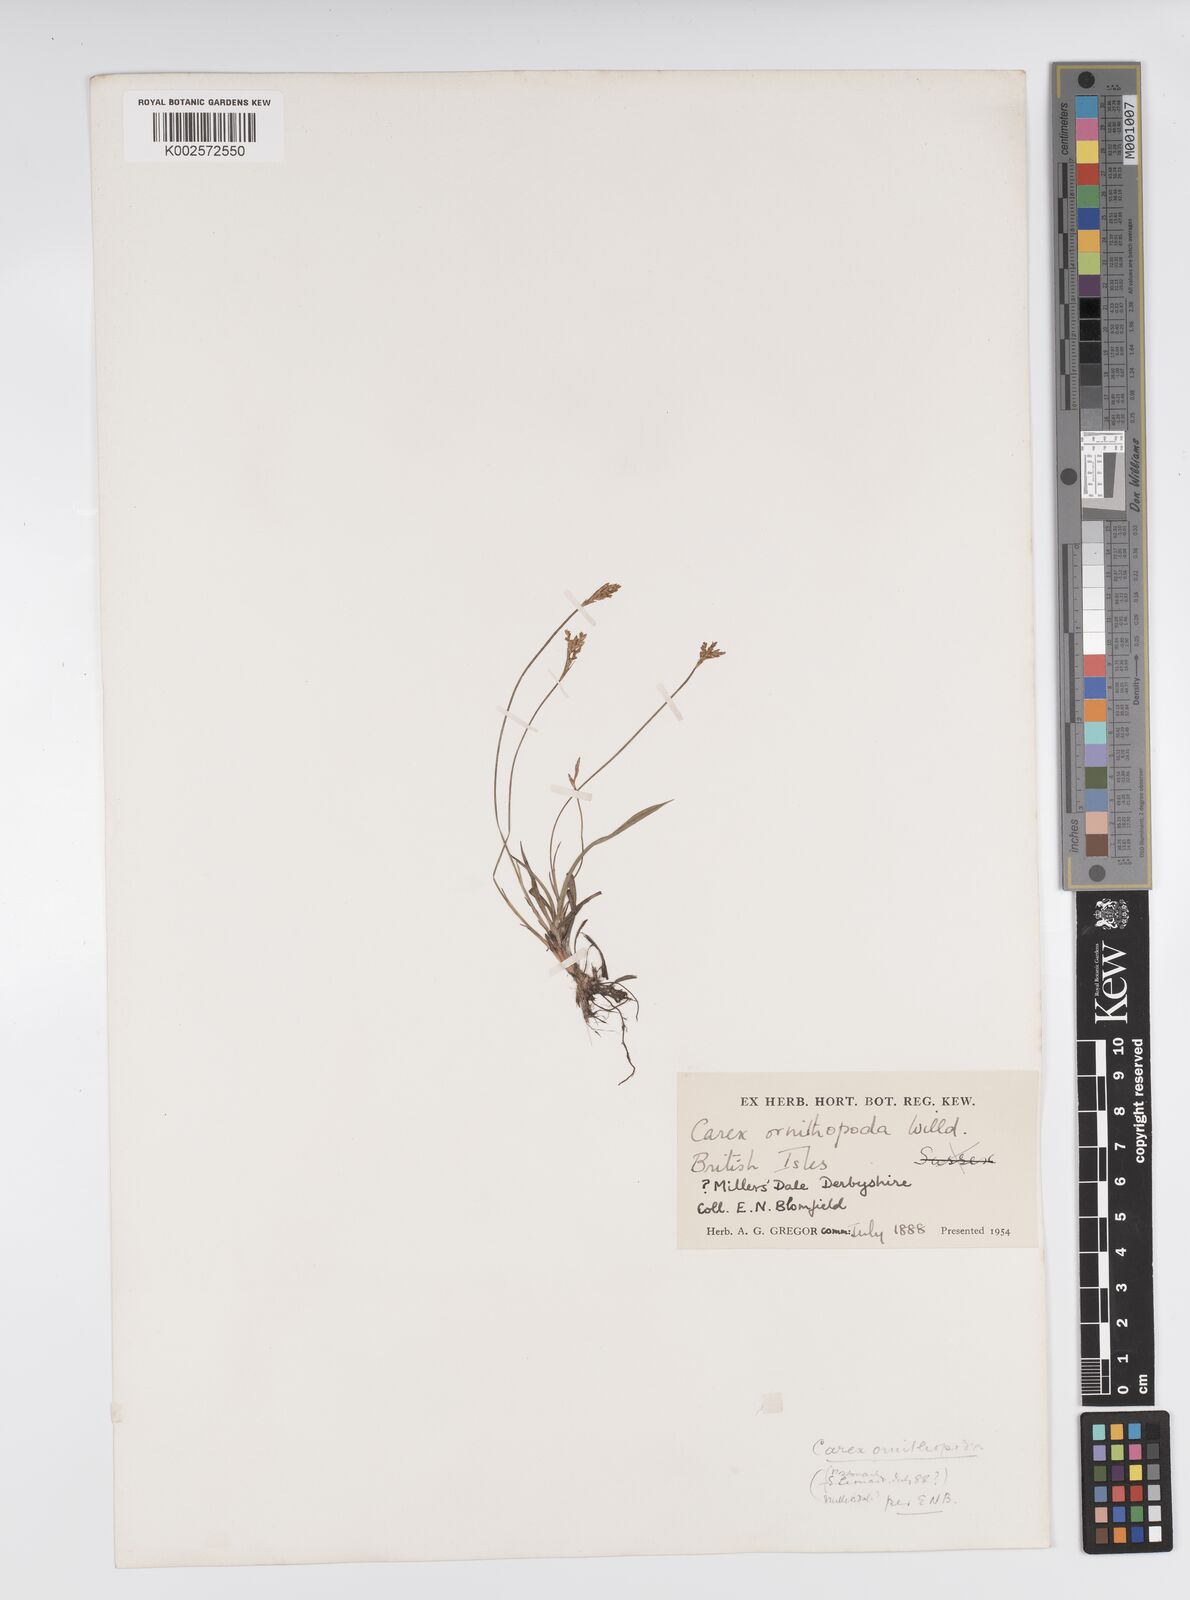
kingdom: Plantae
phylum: Tracheophyta
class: Liliopsida
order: Poales
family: Cyperaceae
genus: Carex
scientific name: Carex ornithopoda
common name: Bird's-foot sedge
